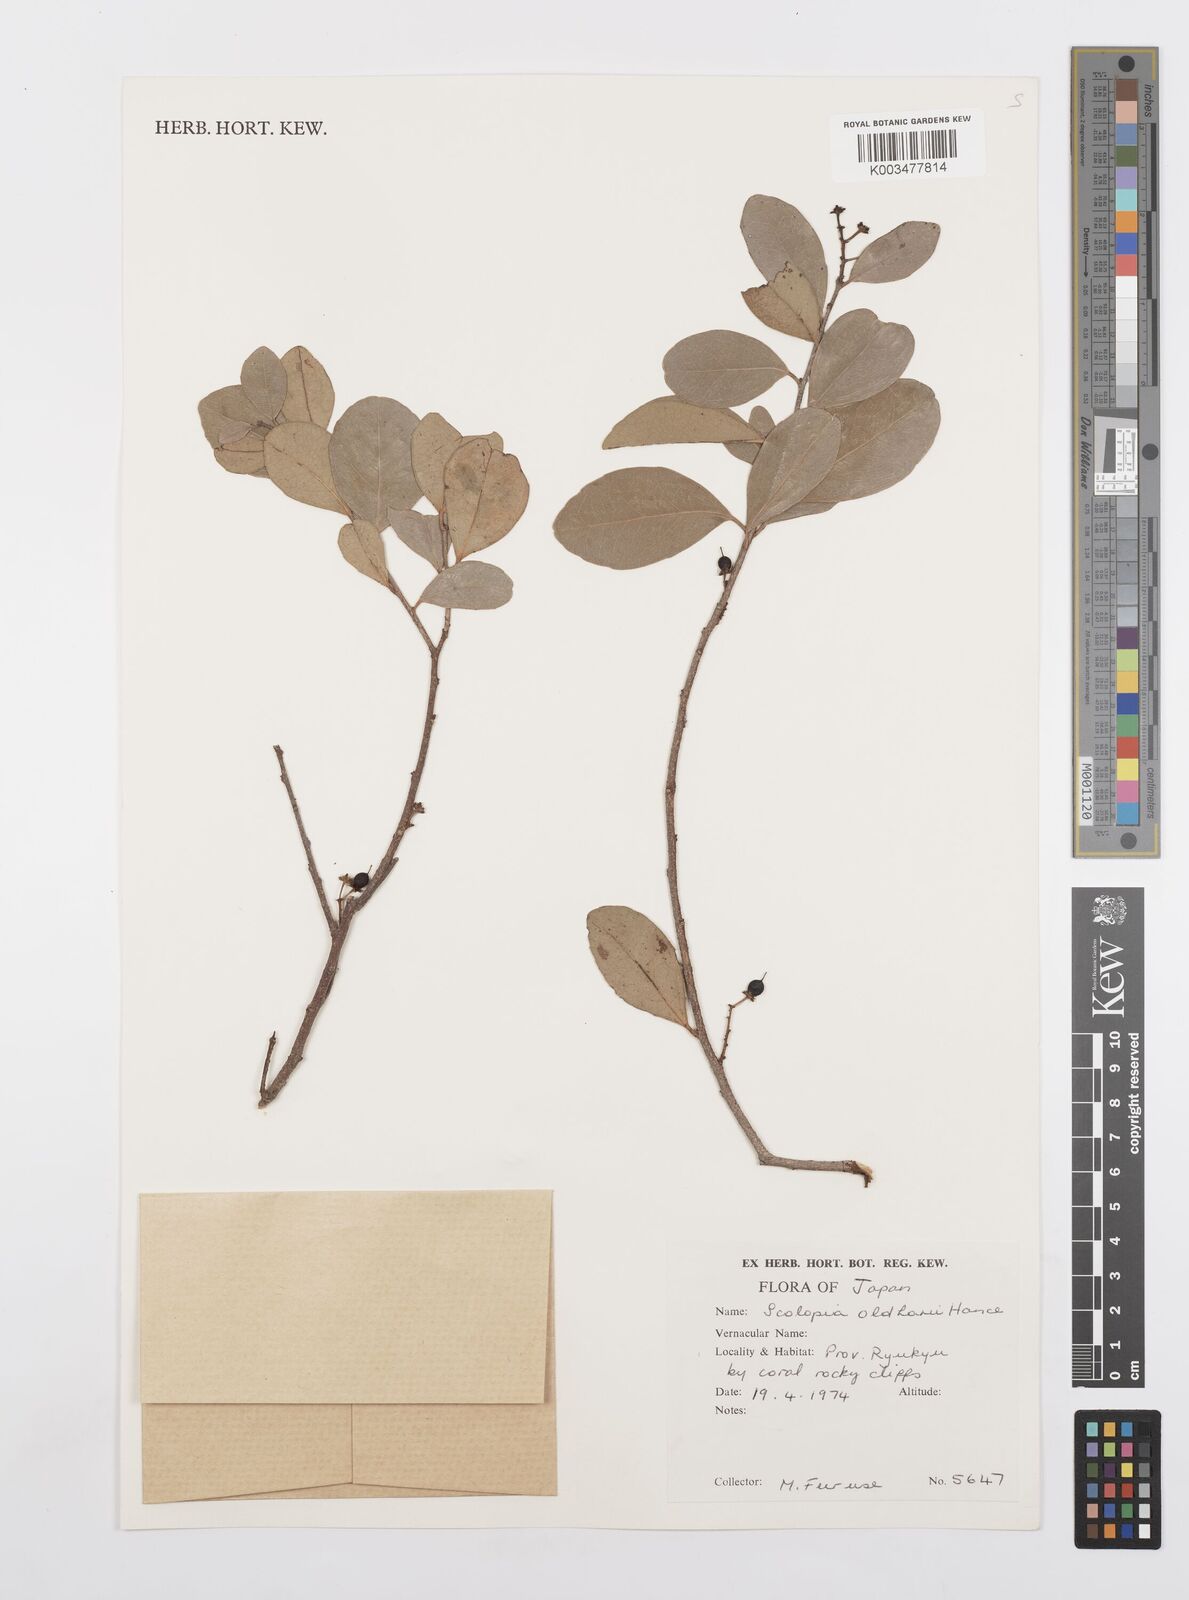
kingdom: Plantae
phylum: Tracheophyta
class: Magnoliopsida
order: Malpighiales
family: Salicaceae
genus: Scolopia
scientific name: Scolopia oldhamii
